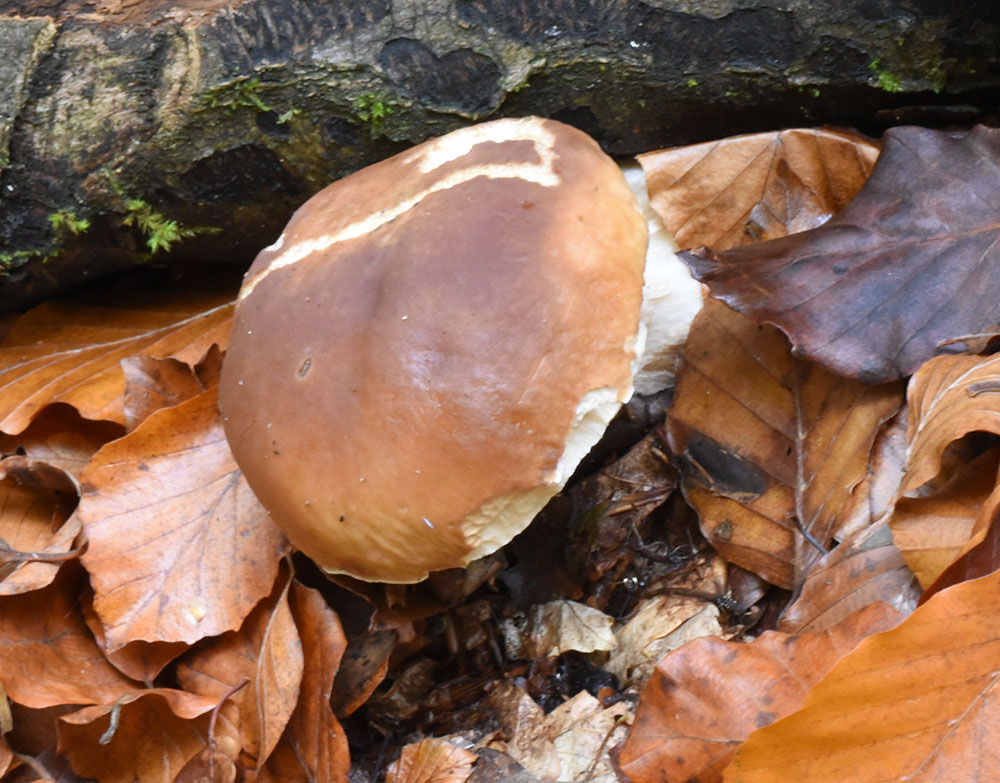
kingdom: Fungi
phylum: Basidiomycota
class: Agaricomycetes
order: Boletales
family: Boletaceae
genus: Boletus
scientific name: Boletus edulis
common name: Cep
